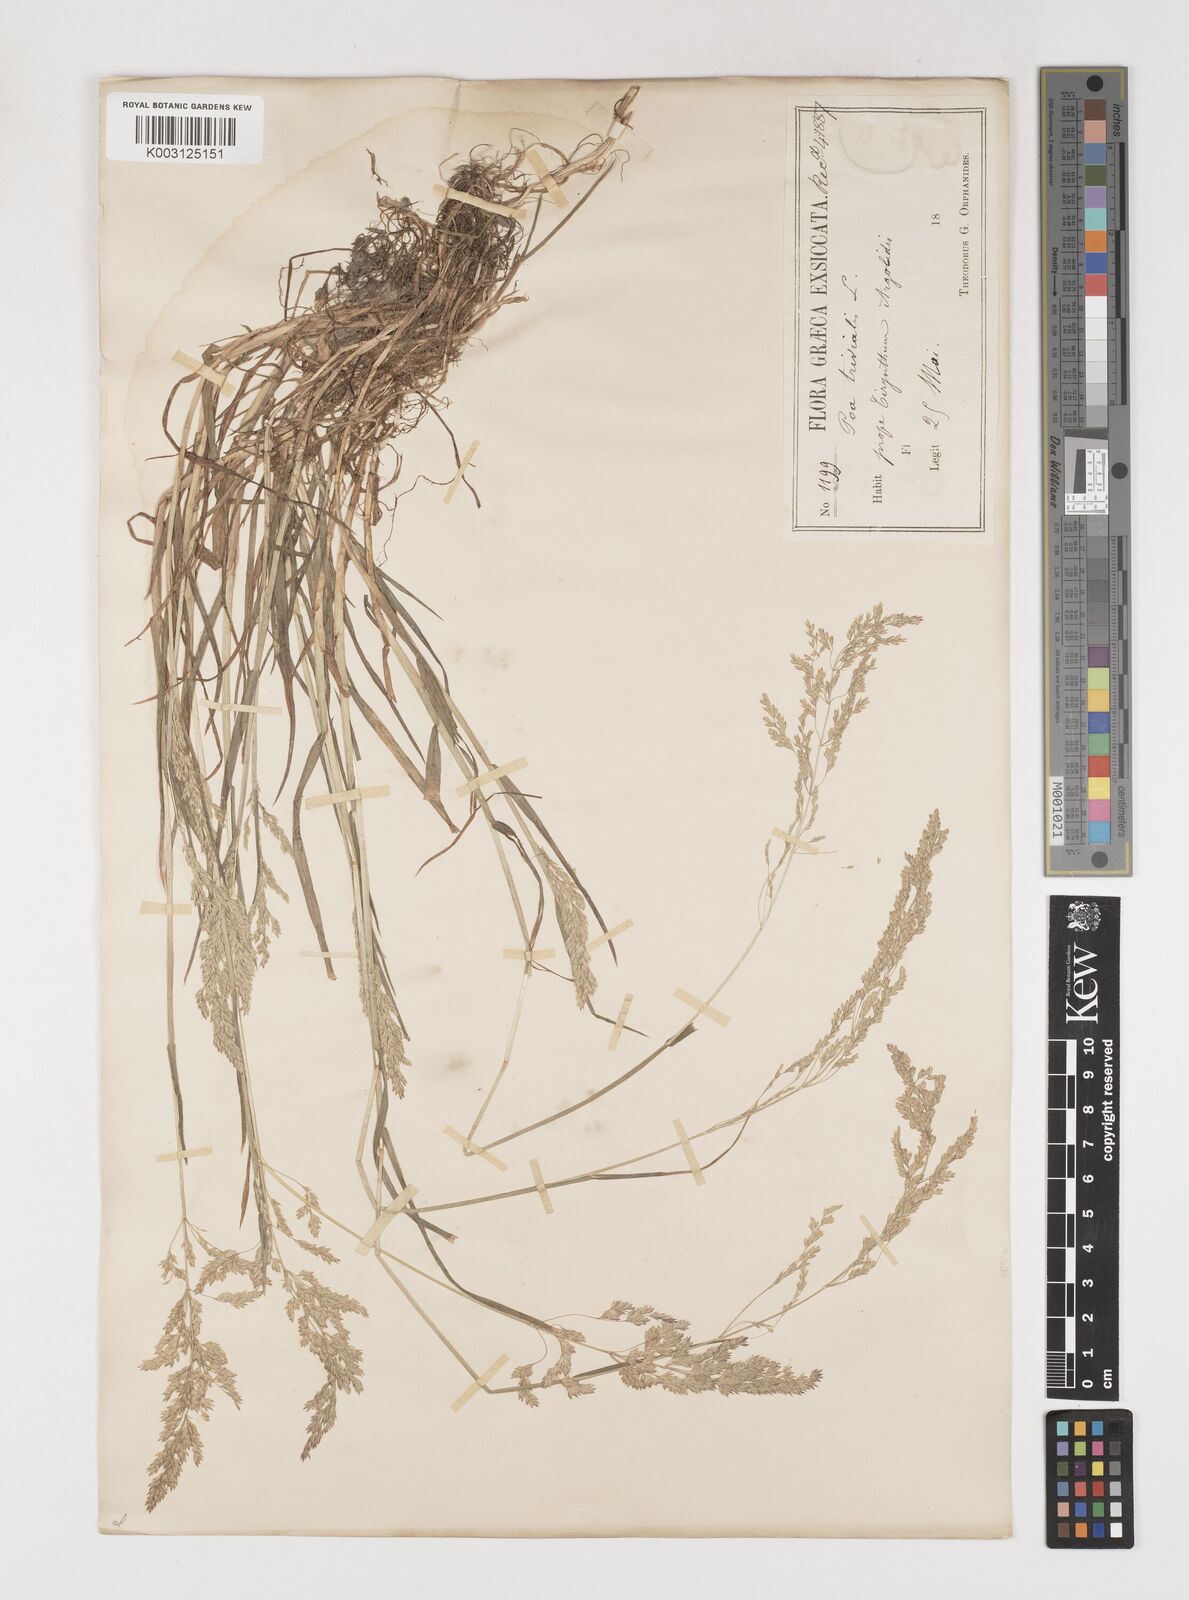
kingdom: Plantae
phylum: Tracheophyta
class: Liliopsida
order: Poales
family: Poaceae
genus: Poa
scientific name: Poa trivialis
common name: Rough bluegrass
